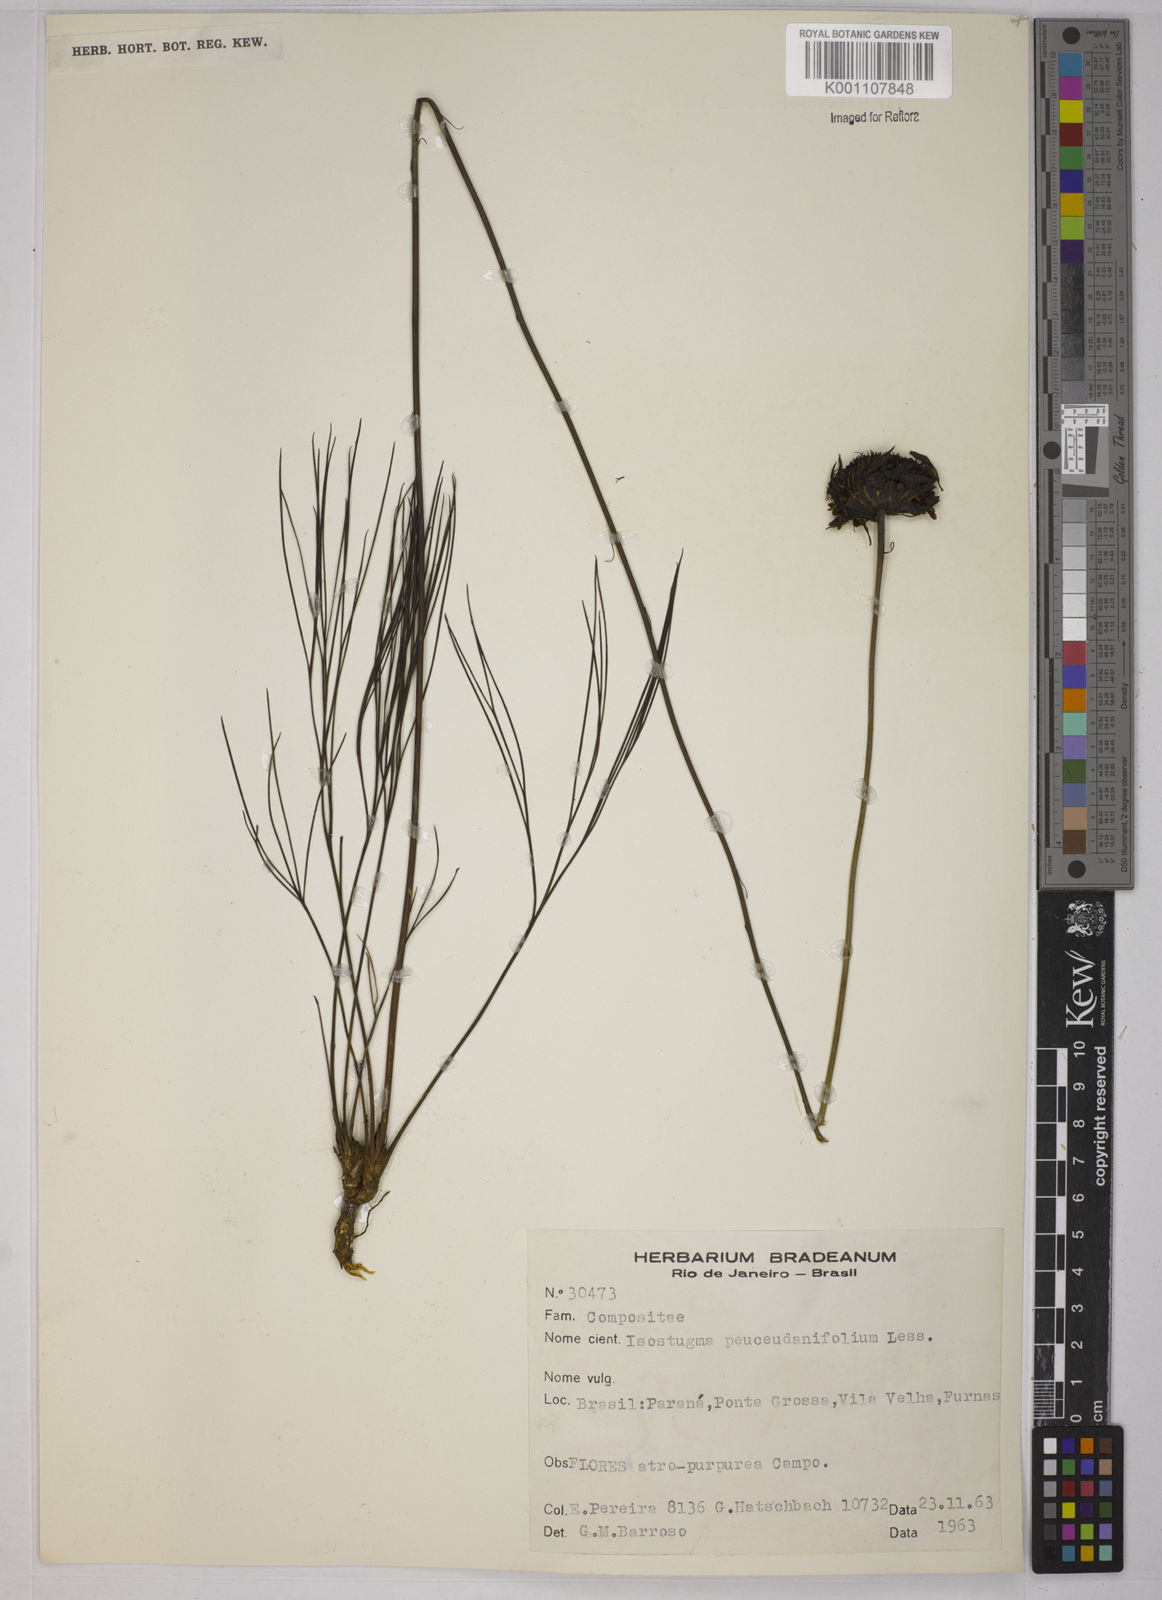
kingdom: Plantae
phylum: Tracheophyta
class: Magnoliopsida
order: Asterales
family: Asteraceae
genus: Isostigma
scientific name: Isostigma
